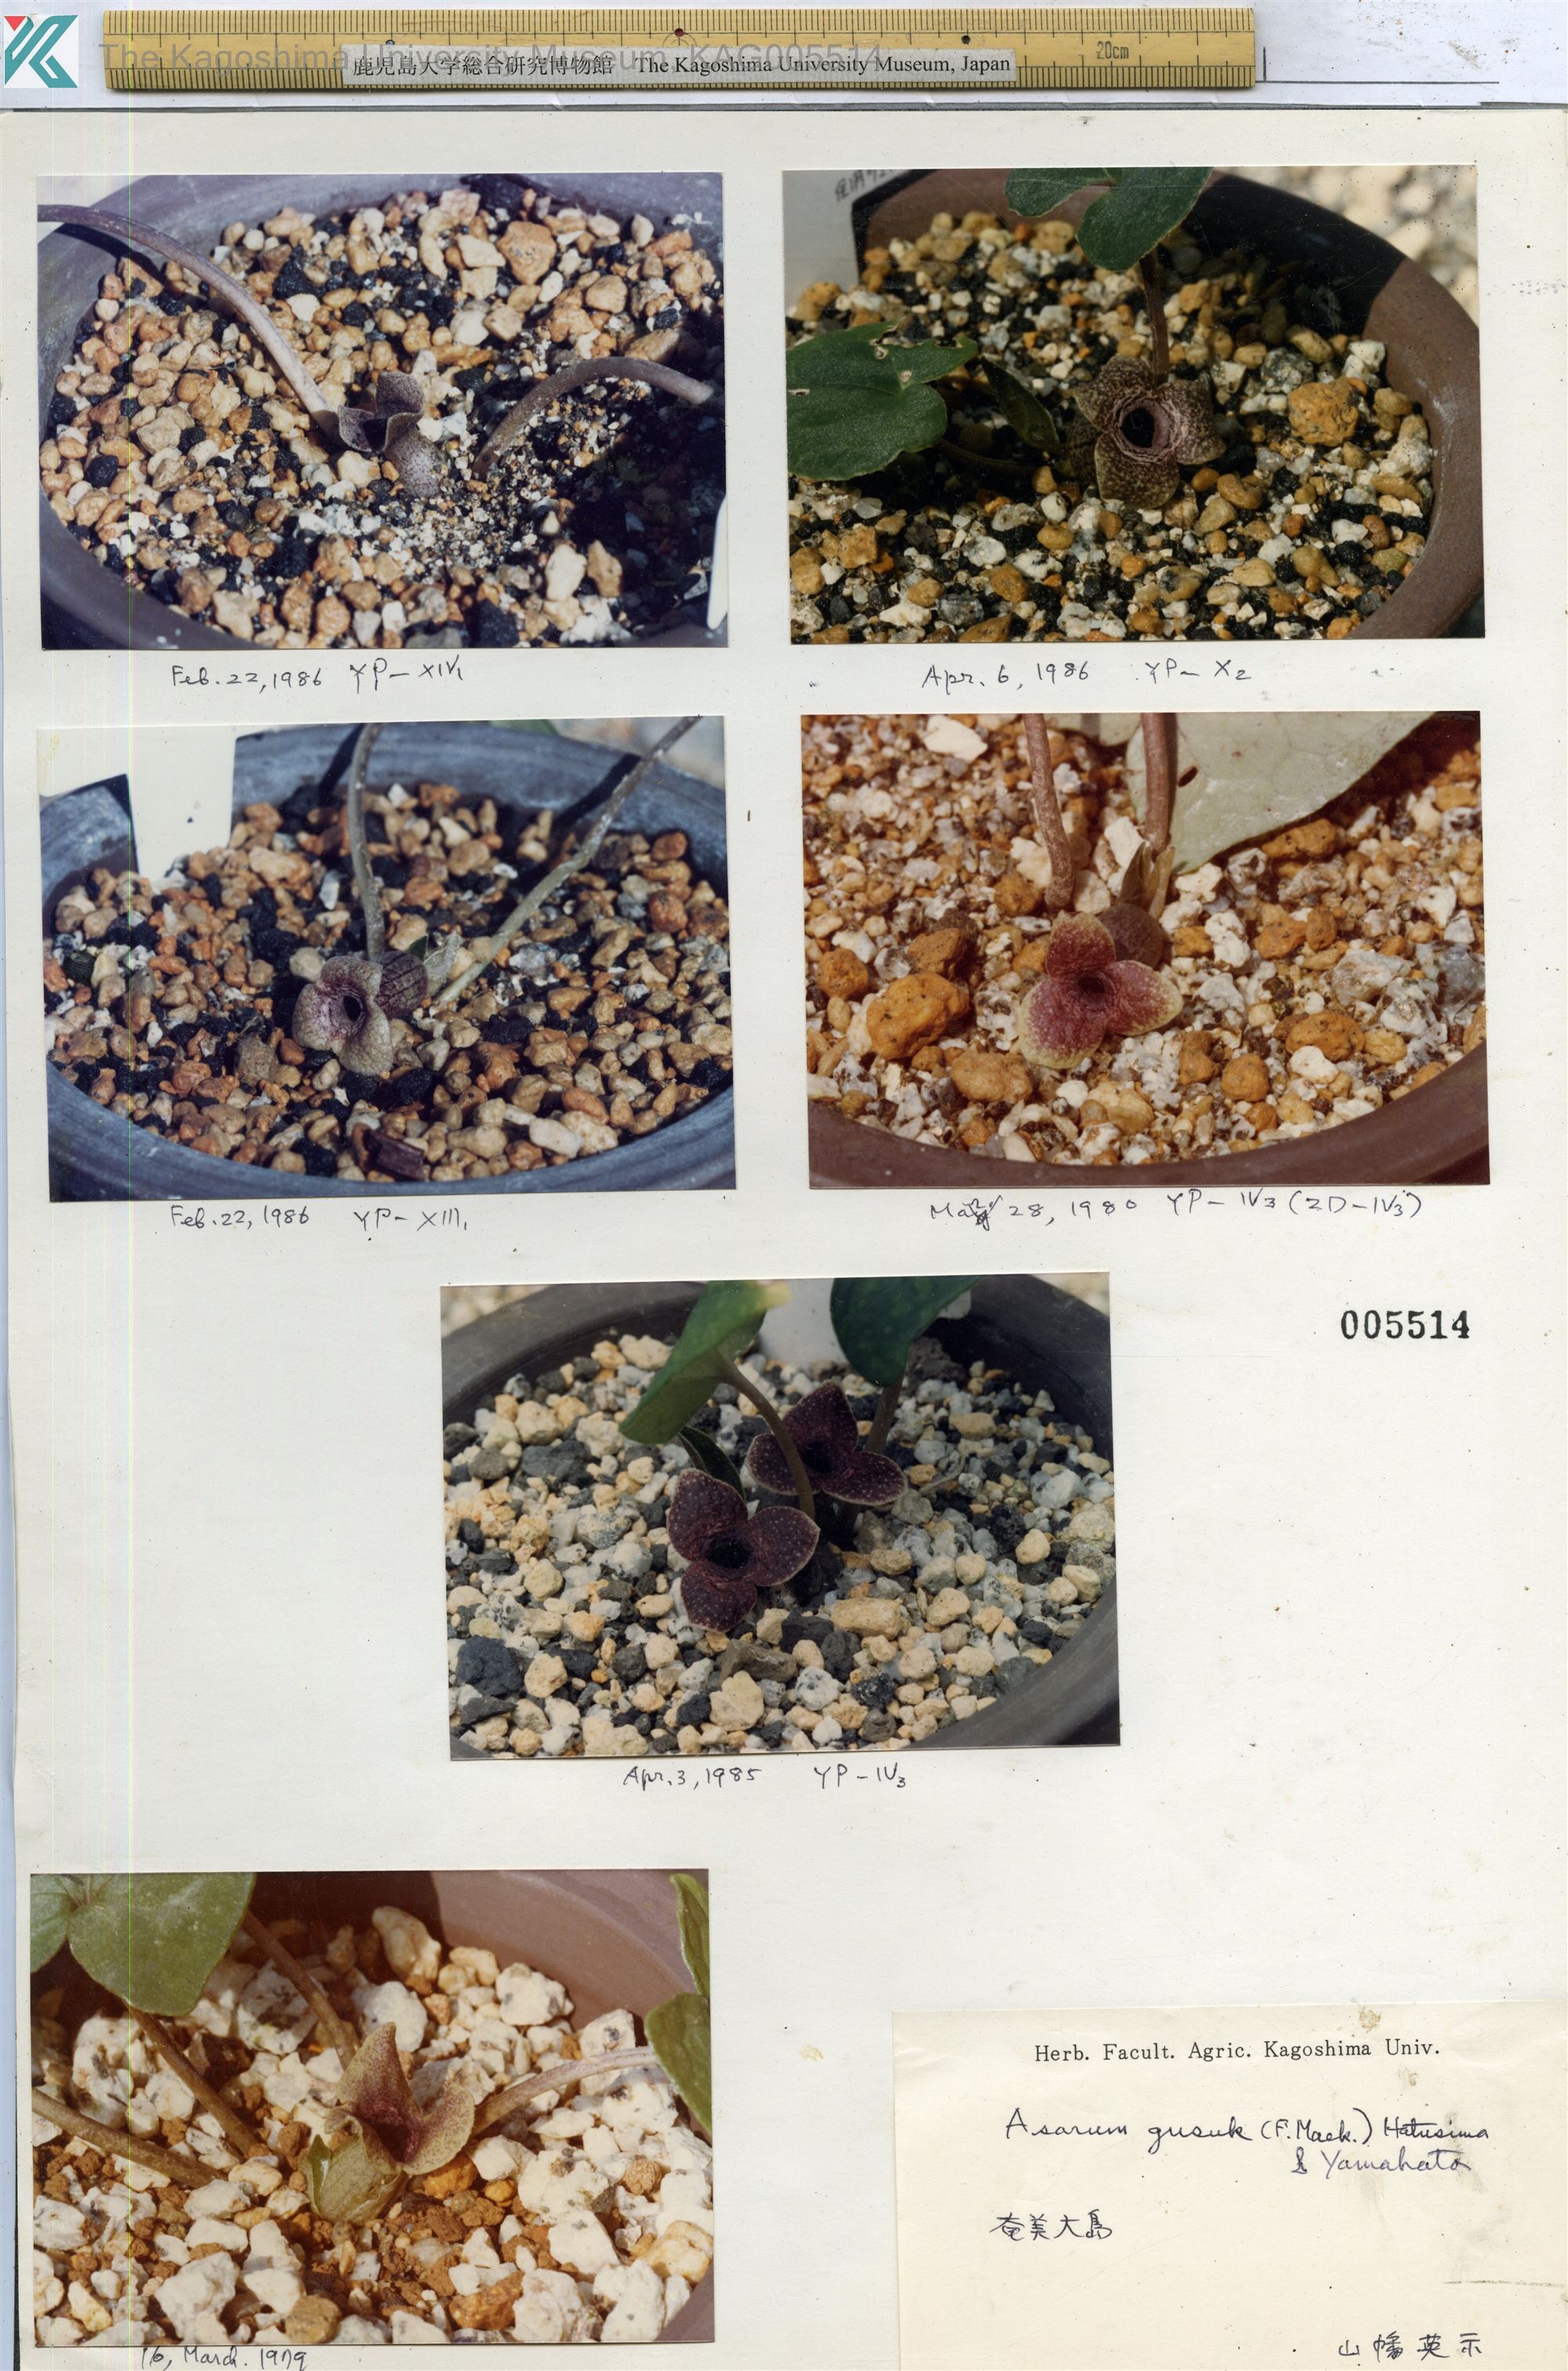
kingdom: Plantae
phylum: Tracheophyta
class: Magnoliopsida
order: Piperales
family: Aristolochiaceae
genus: Asarum
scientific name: Asarum gusk
